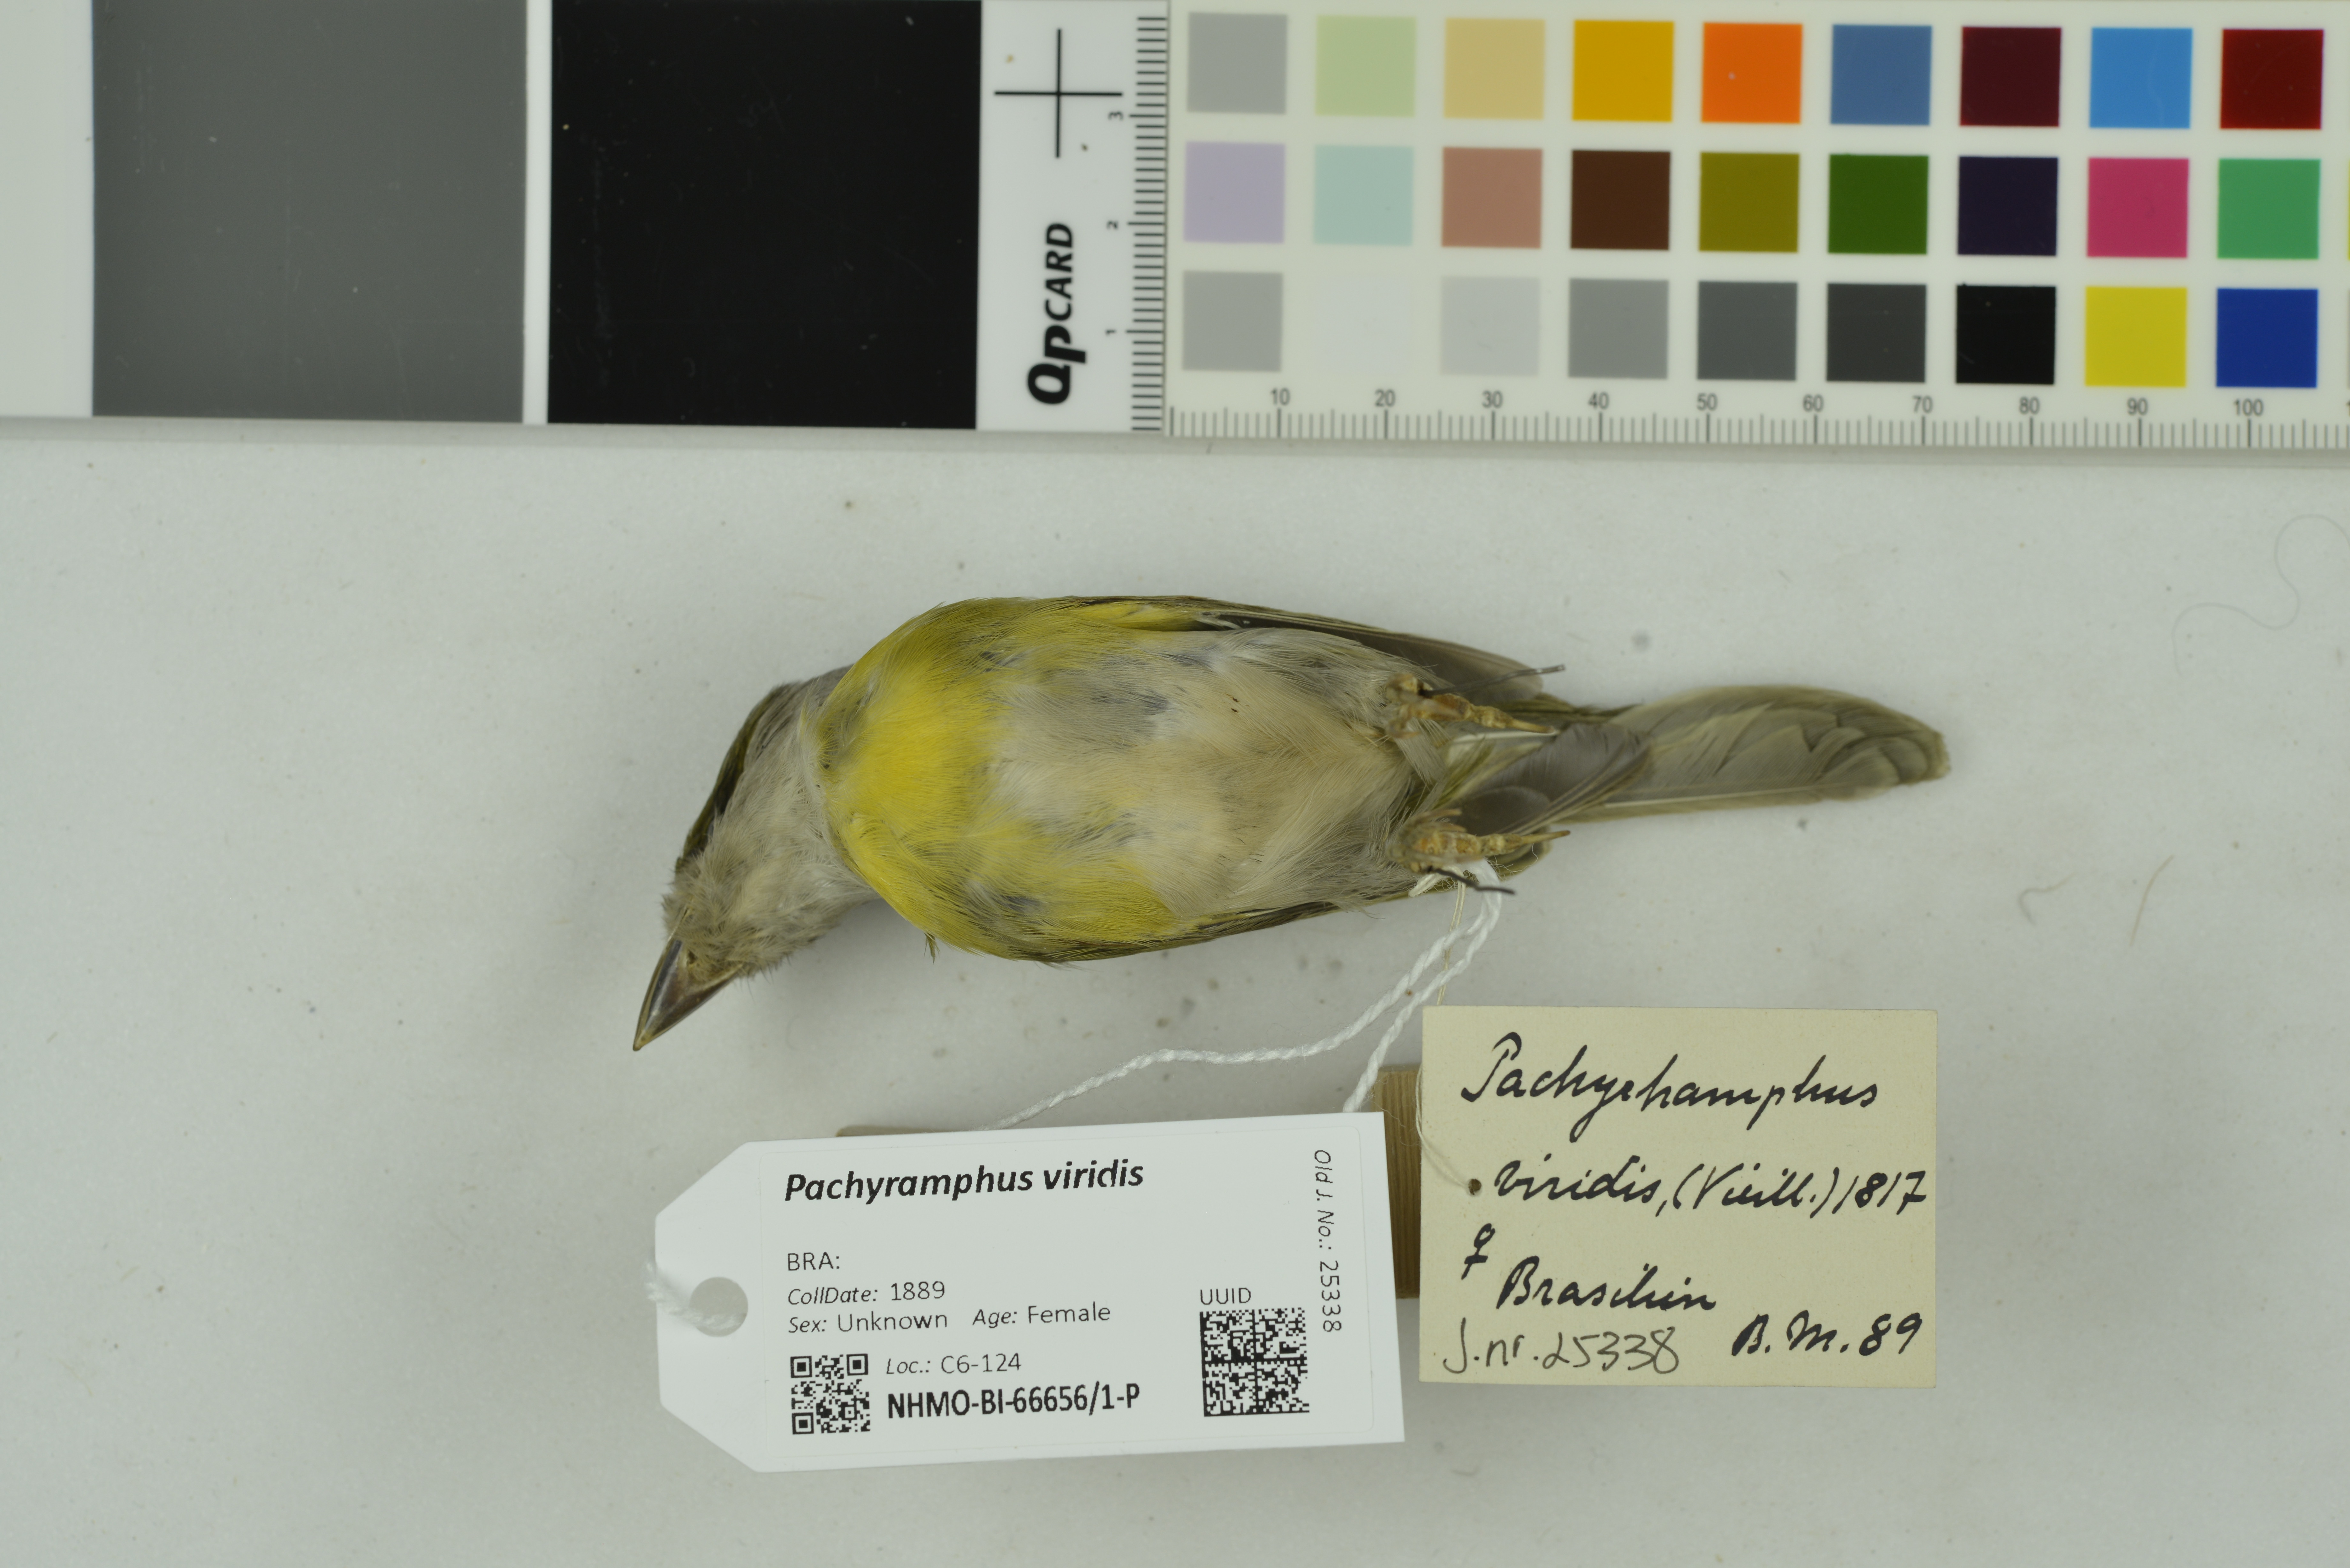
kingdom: Animalia
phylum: Chordata
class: Aves
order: Passeriformes
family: Cotingidae
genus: Pachyramphus
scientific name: Pachyramphus viridis
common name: Green-backed becard
